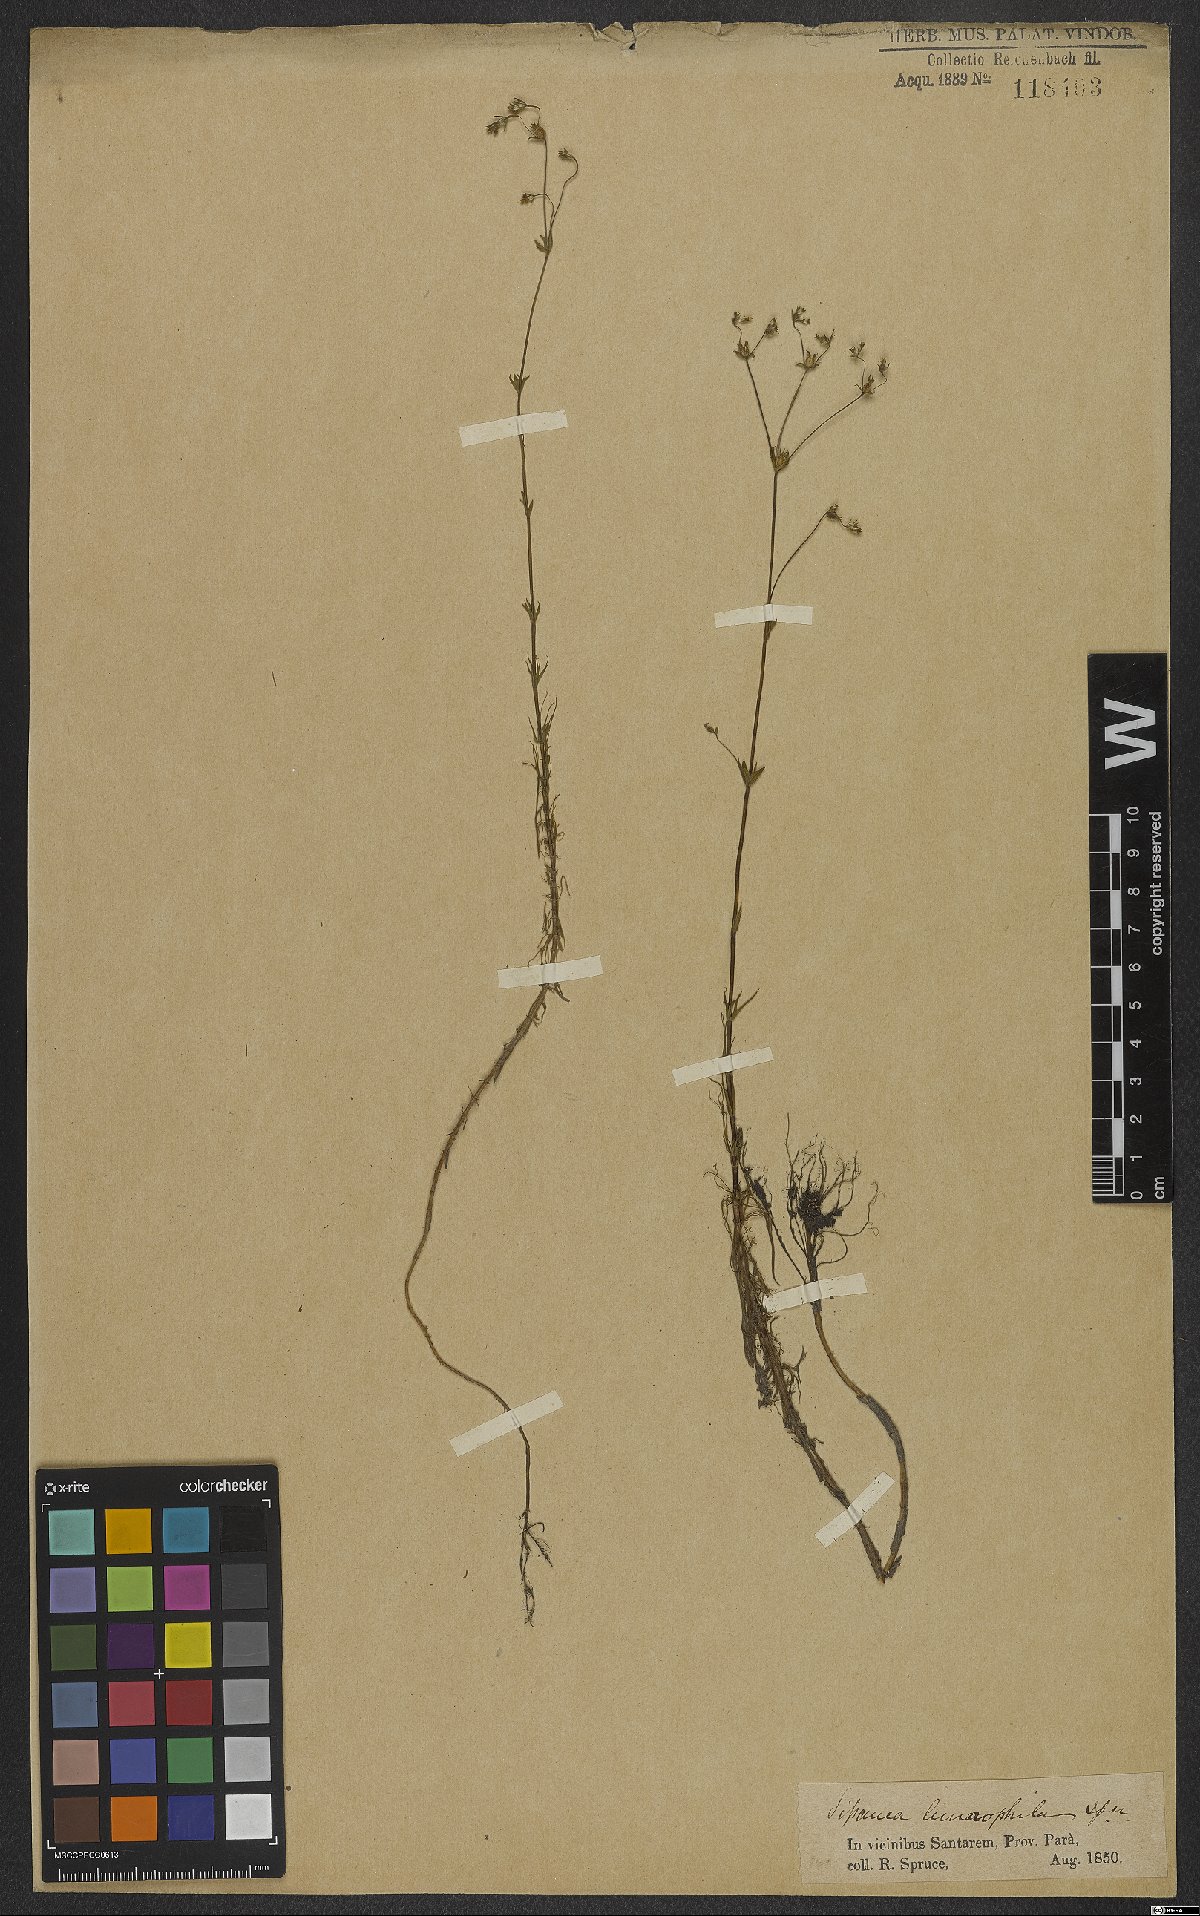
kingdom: Plantae
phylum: Tracheophyta
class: Magnoliopsida
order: Gentianales
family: Rubiaceae
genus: Limnosipanea
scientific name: Limnosipanea spruceana
